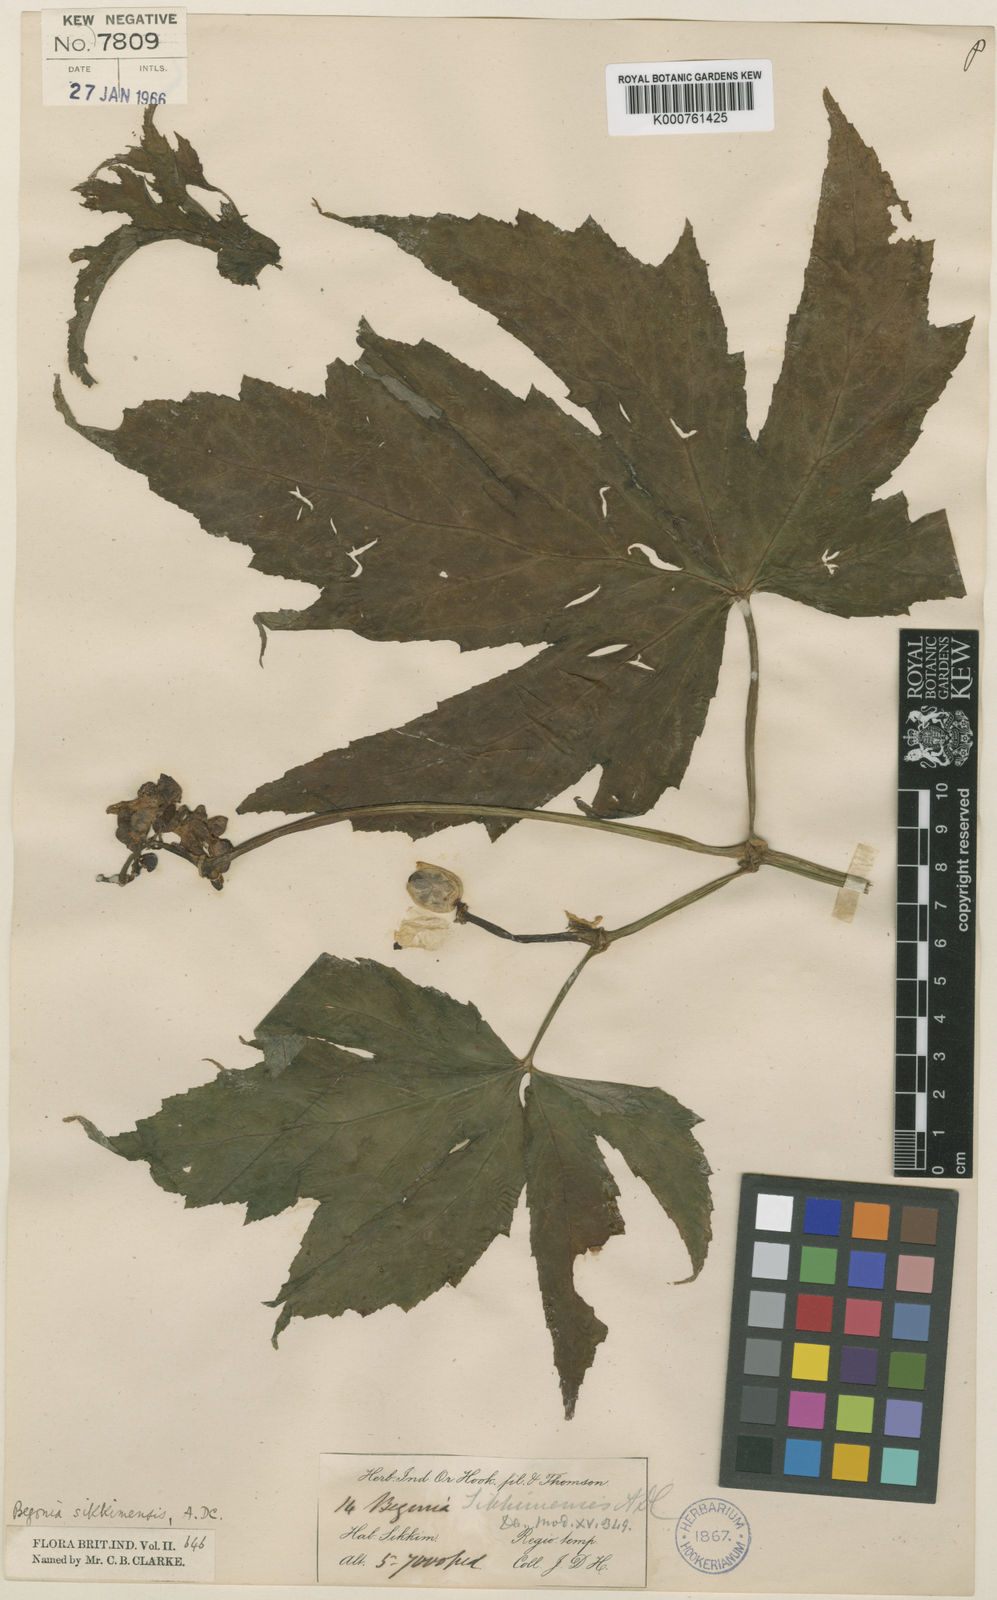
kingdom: Plantae
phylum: Tracheophyta
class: Magnoliopsida
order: Cucurbitales
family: Begoniaceae
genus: Begonia
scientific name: Begonia sikkimensis
